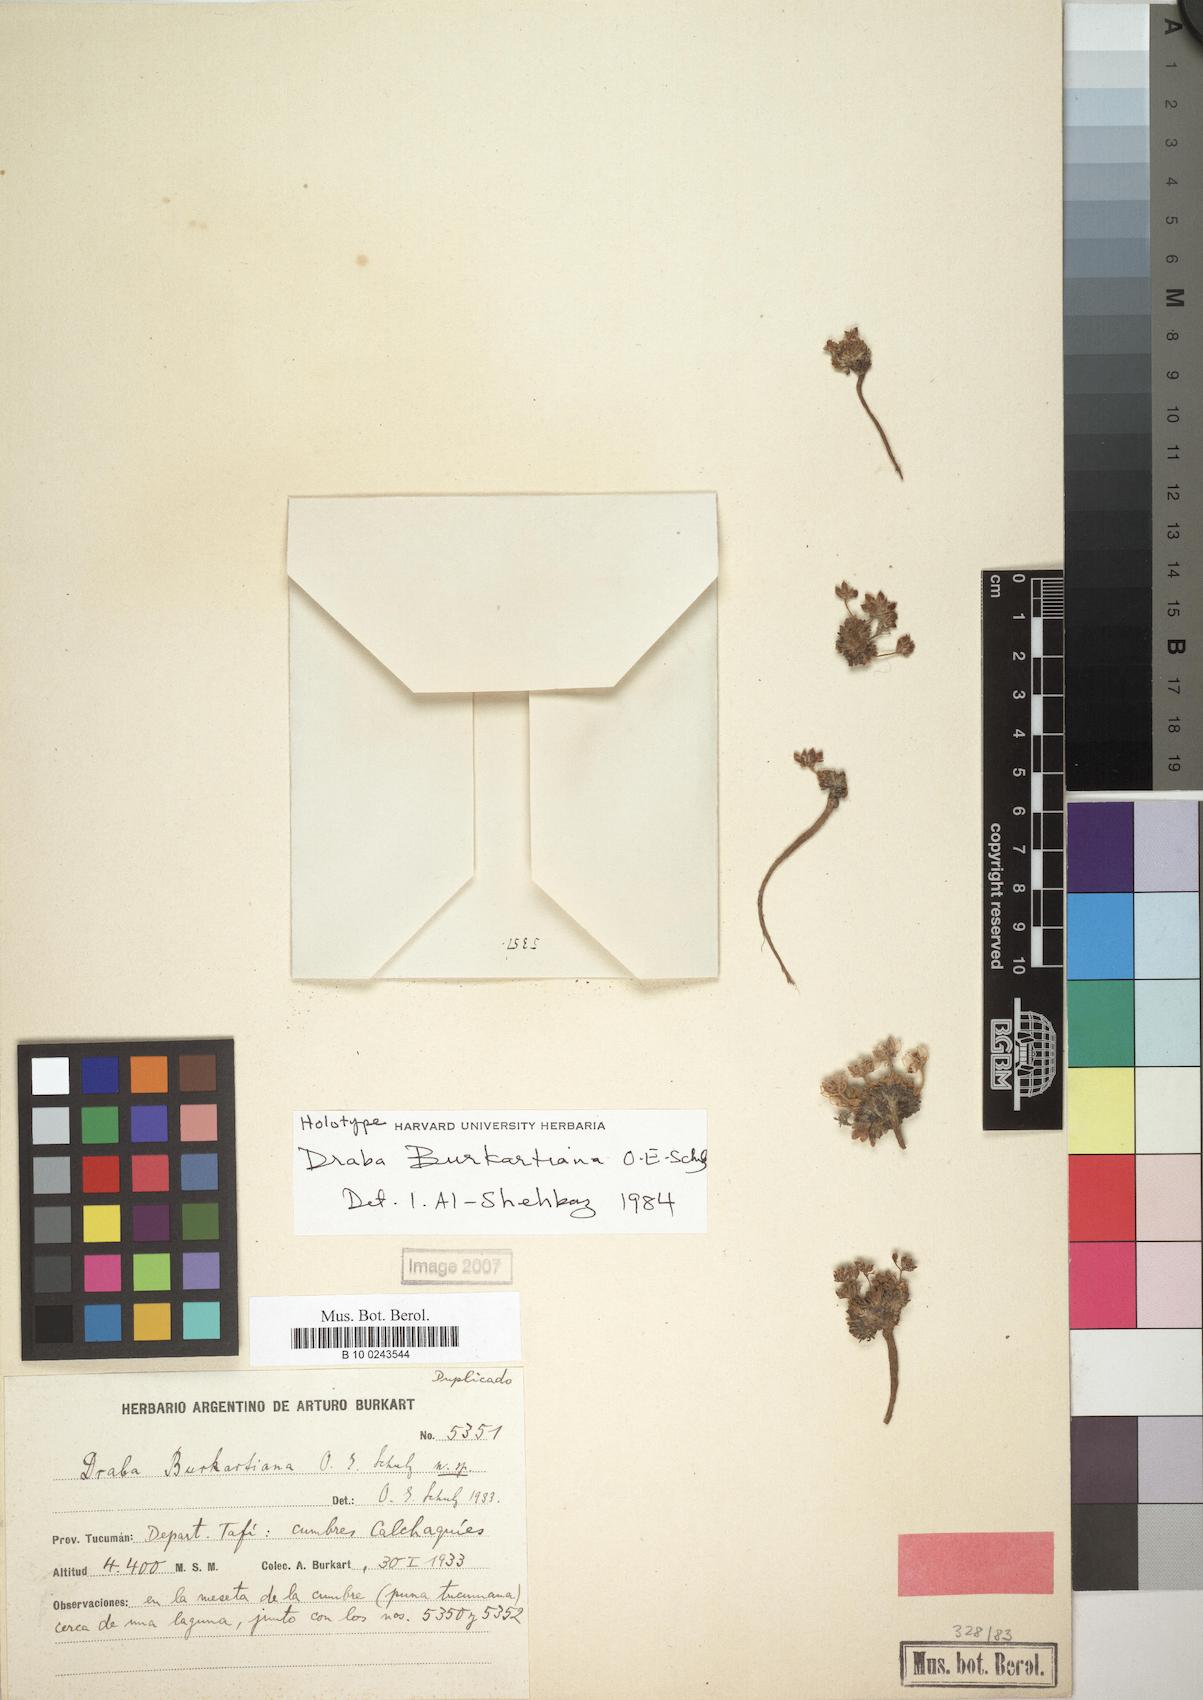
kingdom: Plantae
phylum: Tracheophyta
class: Magnoliopsida
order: Brassicales
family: Brassicaceae
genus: Draba
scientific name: Draba burkartiana
